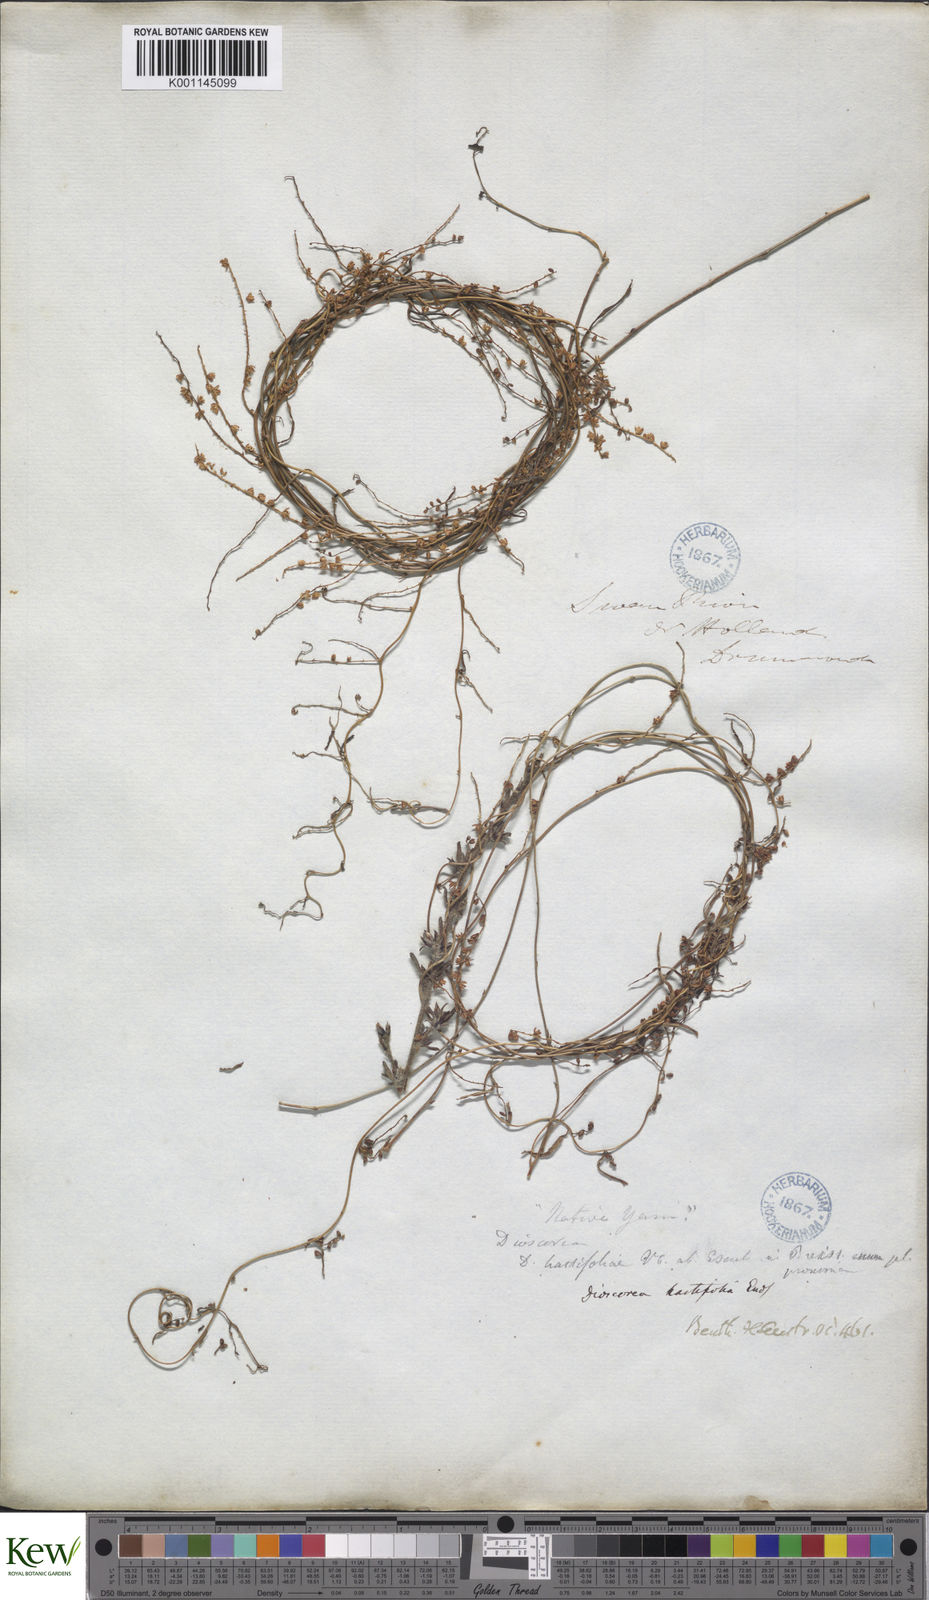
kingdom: Plantae
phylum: Tracheophyta
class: Liliopsida
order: Dioscoreales
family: Dioscoreaceae
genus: Dioscorea
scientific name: Dioscorea hastifolia
